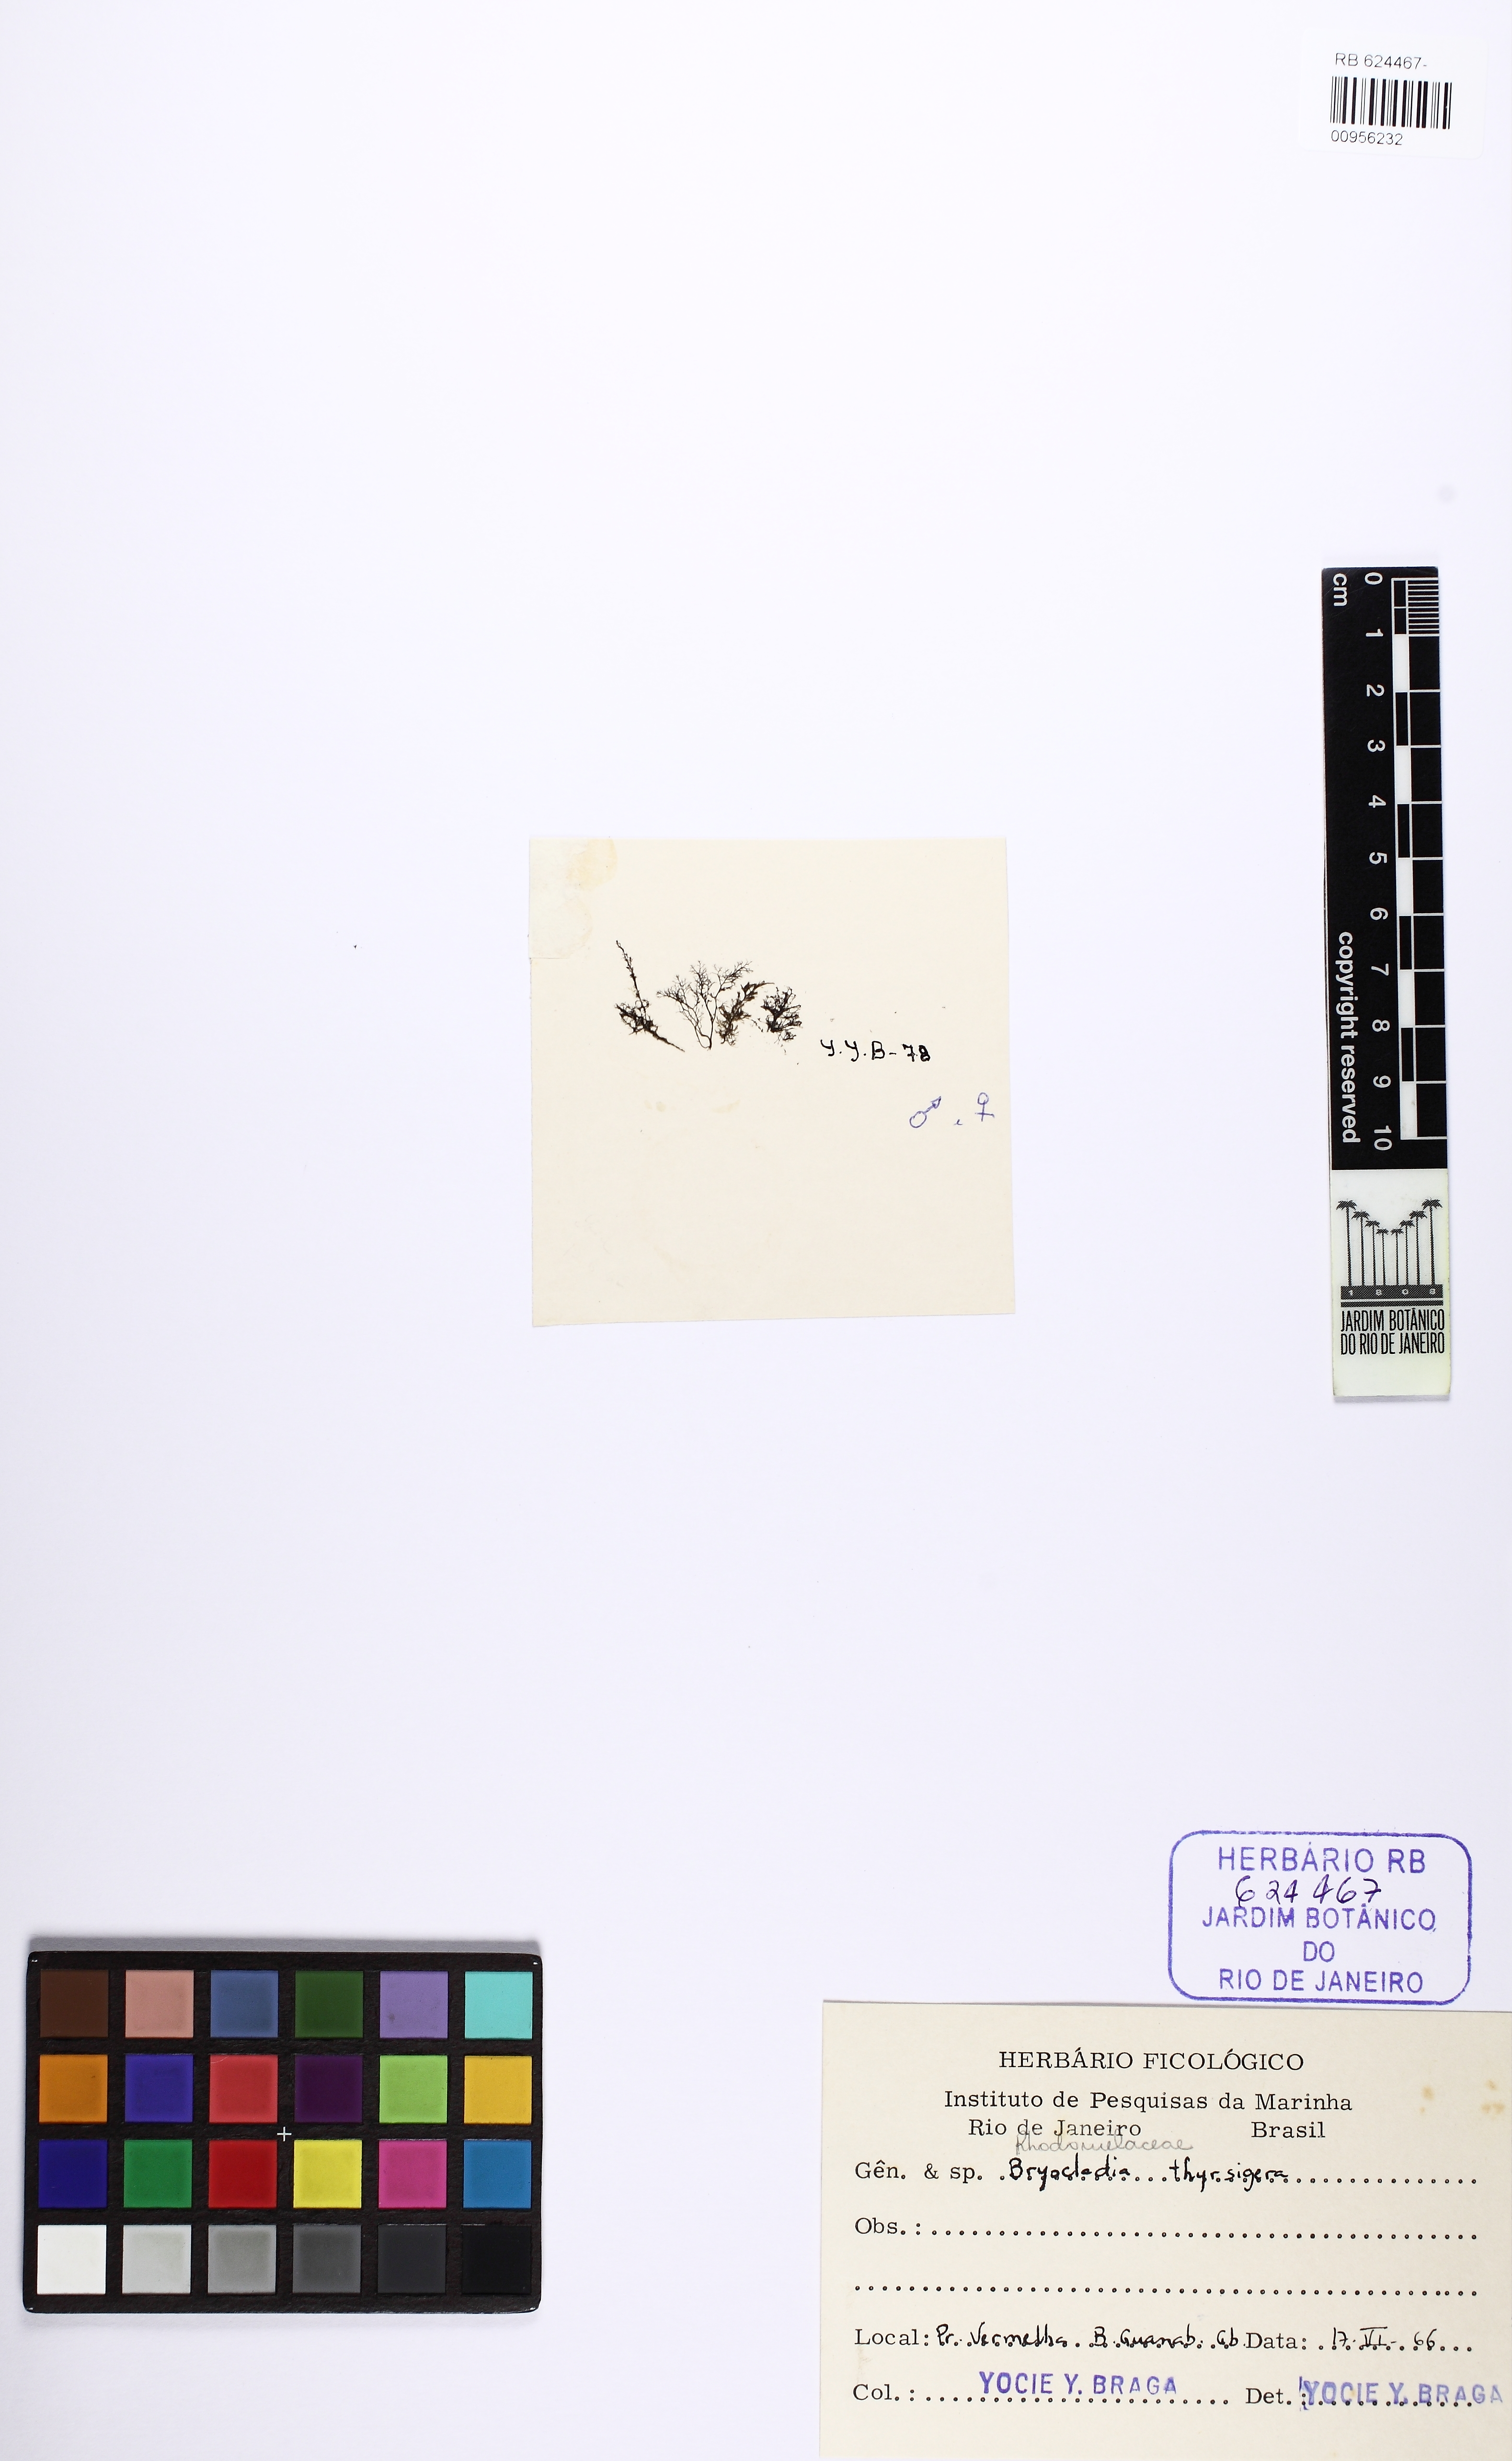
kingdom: Plantae
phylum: Rhodophyta
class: Florideophyceae
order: Ceramiales
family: Rhodomelaceae
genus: Bryocladia
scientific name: Bryocladia thyrsigera
